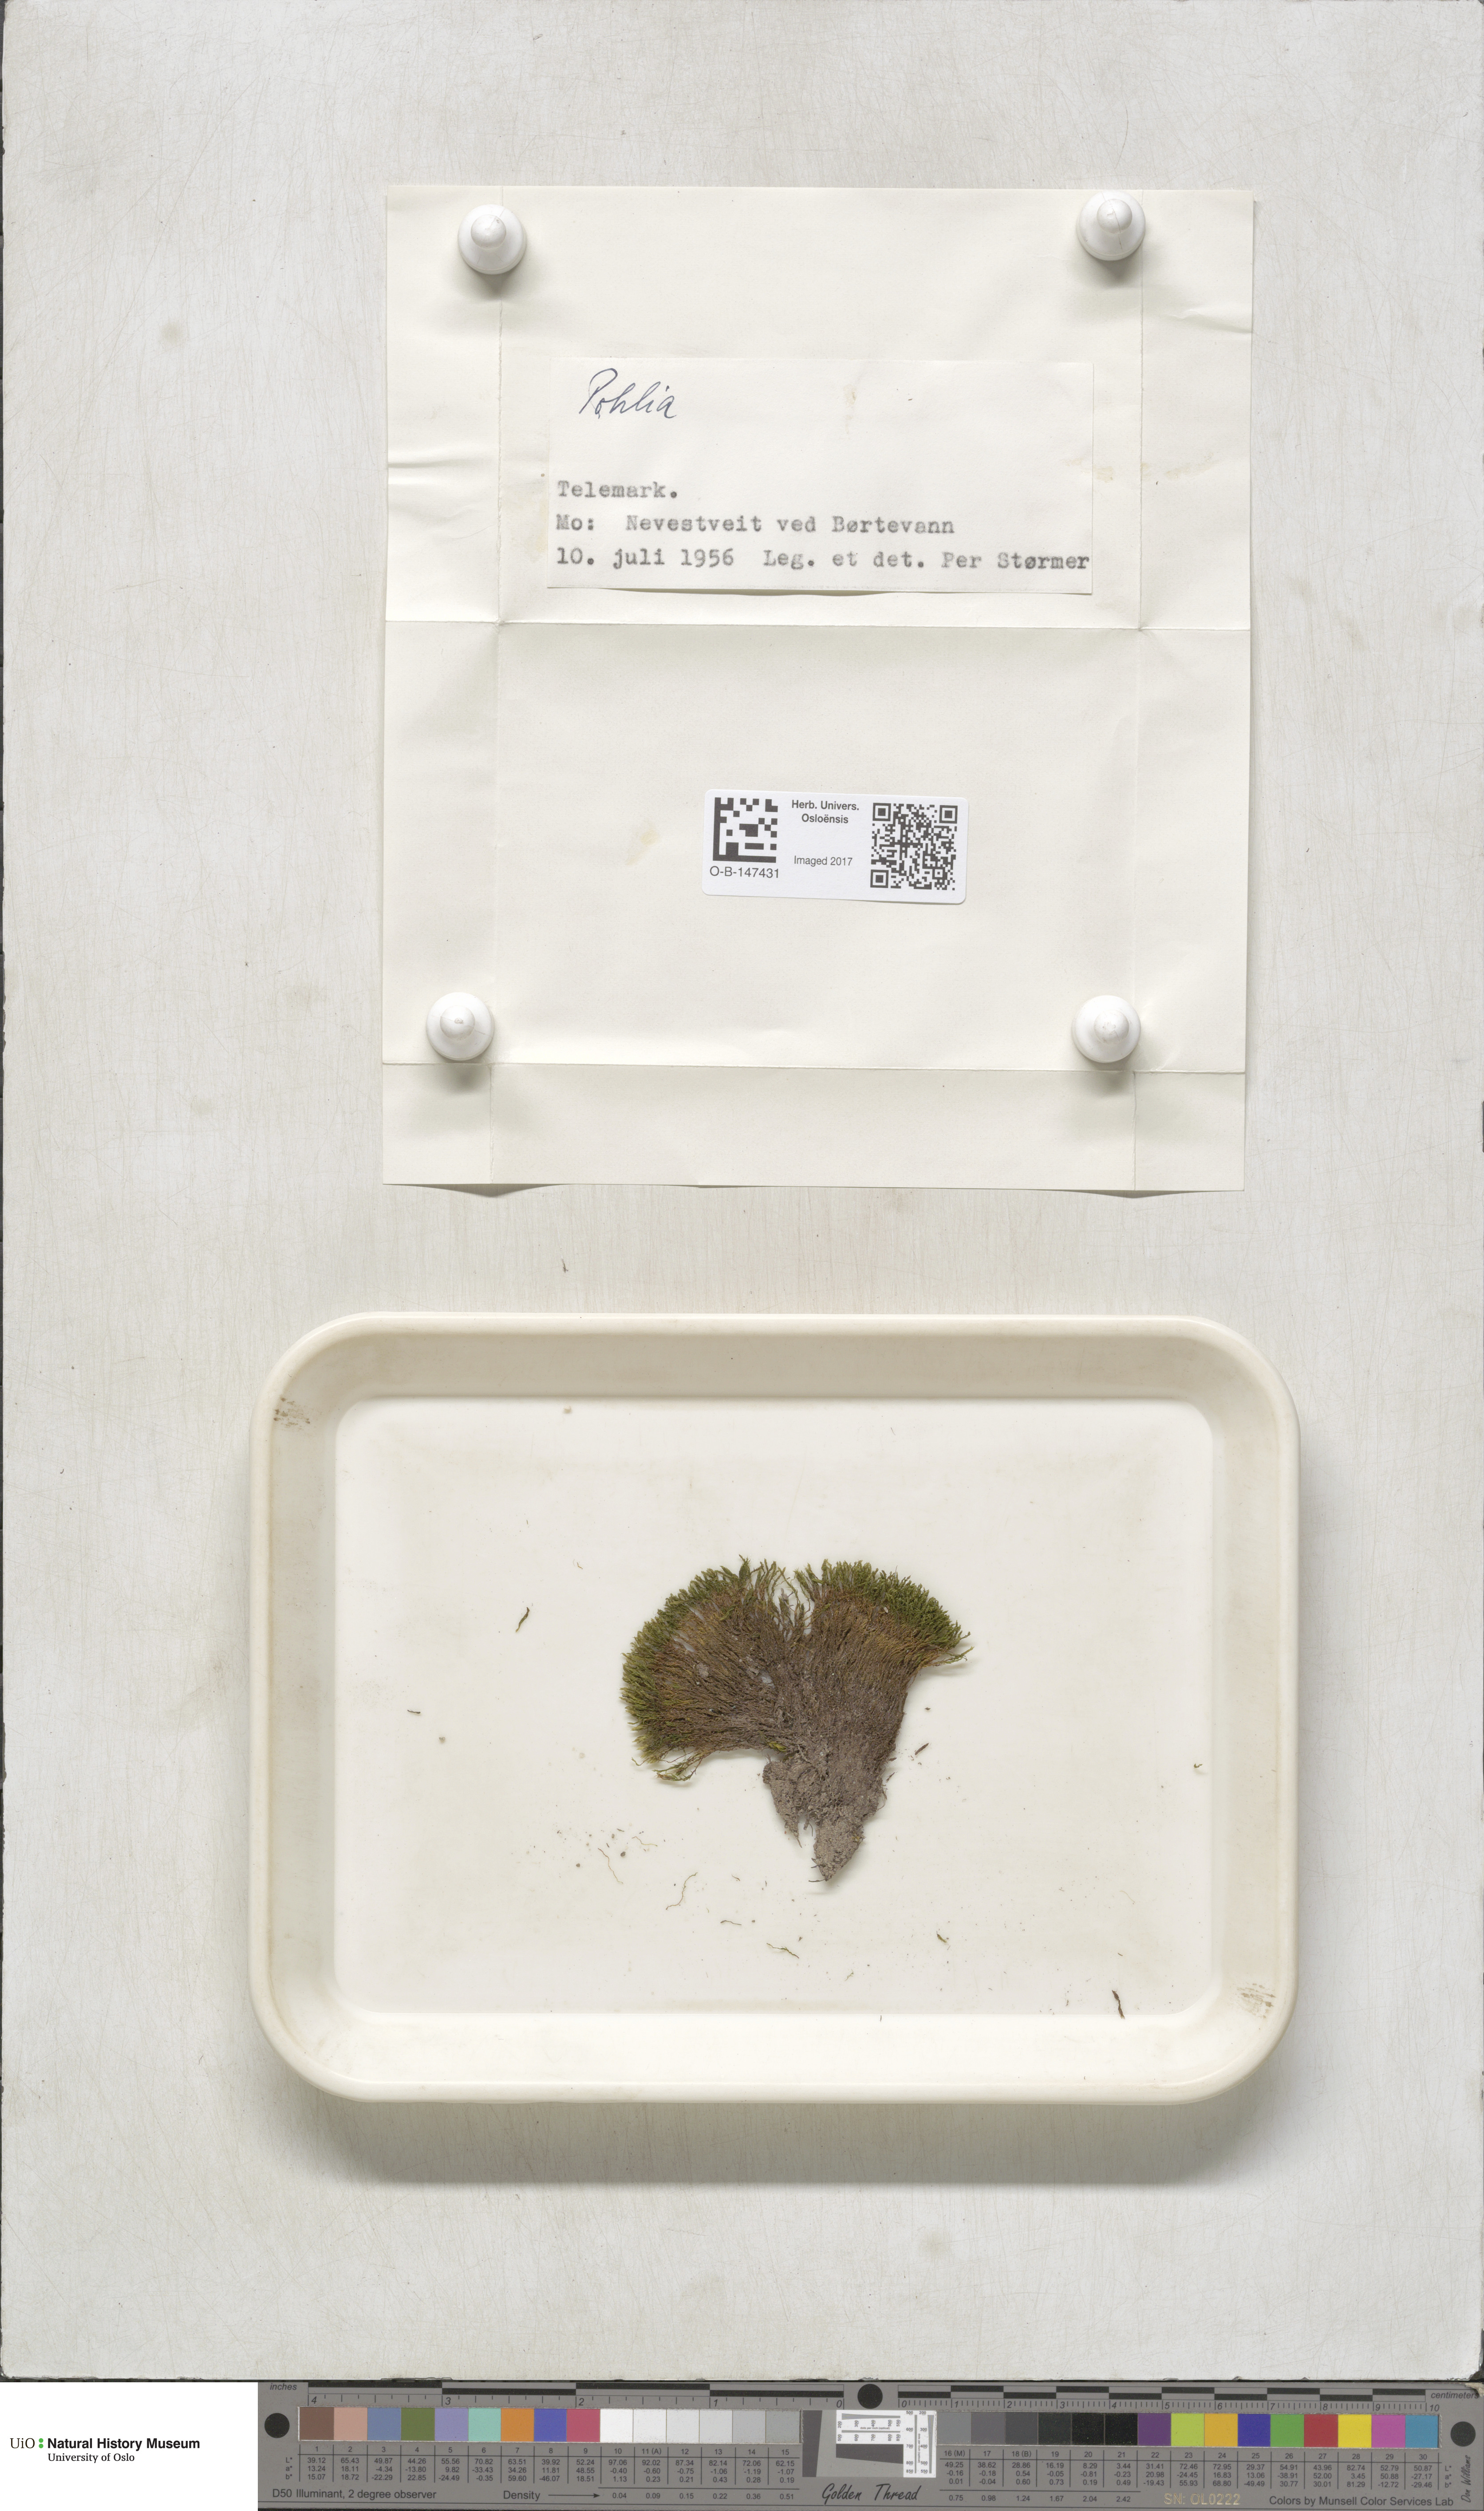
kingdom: Plantae
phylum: Bryophyta
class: Bryopsida
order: Bryales
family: Mniaceae
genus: Pohlia
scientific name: Pohlia
